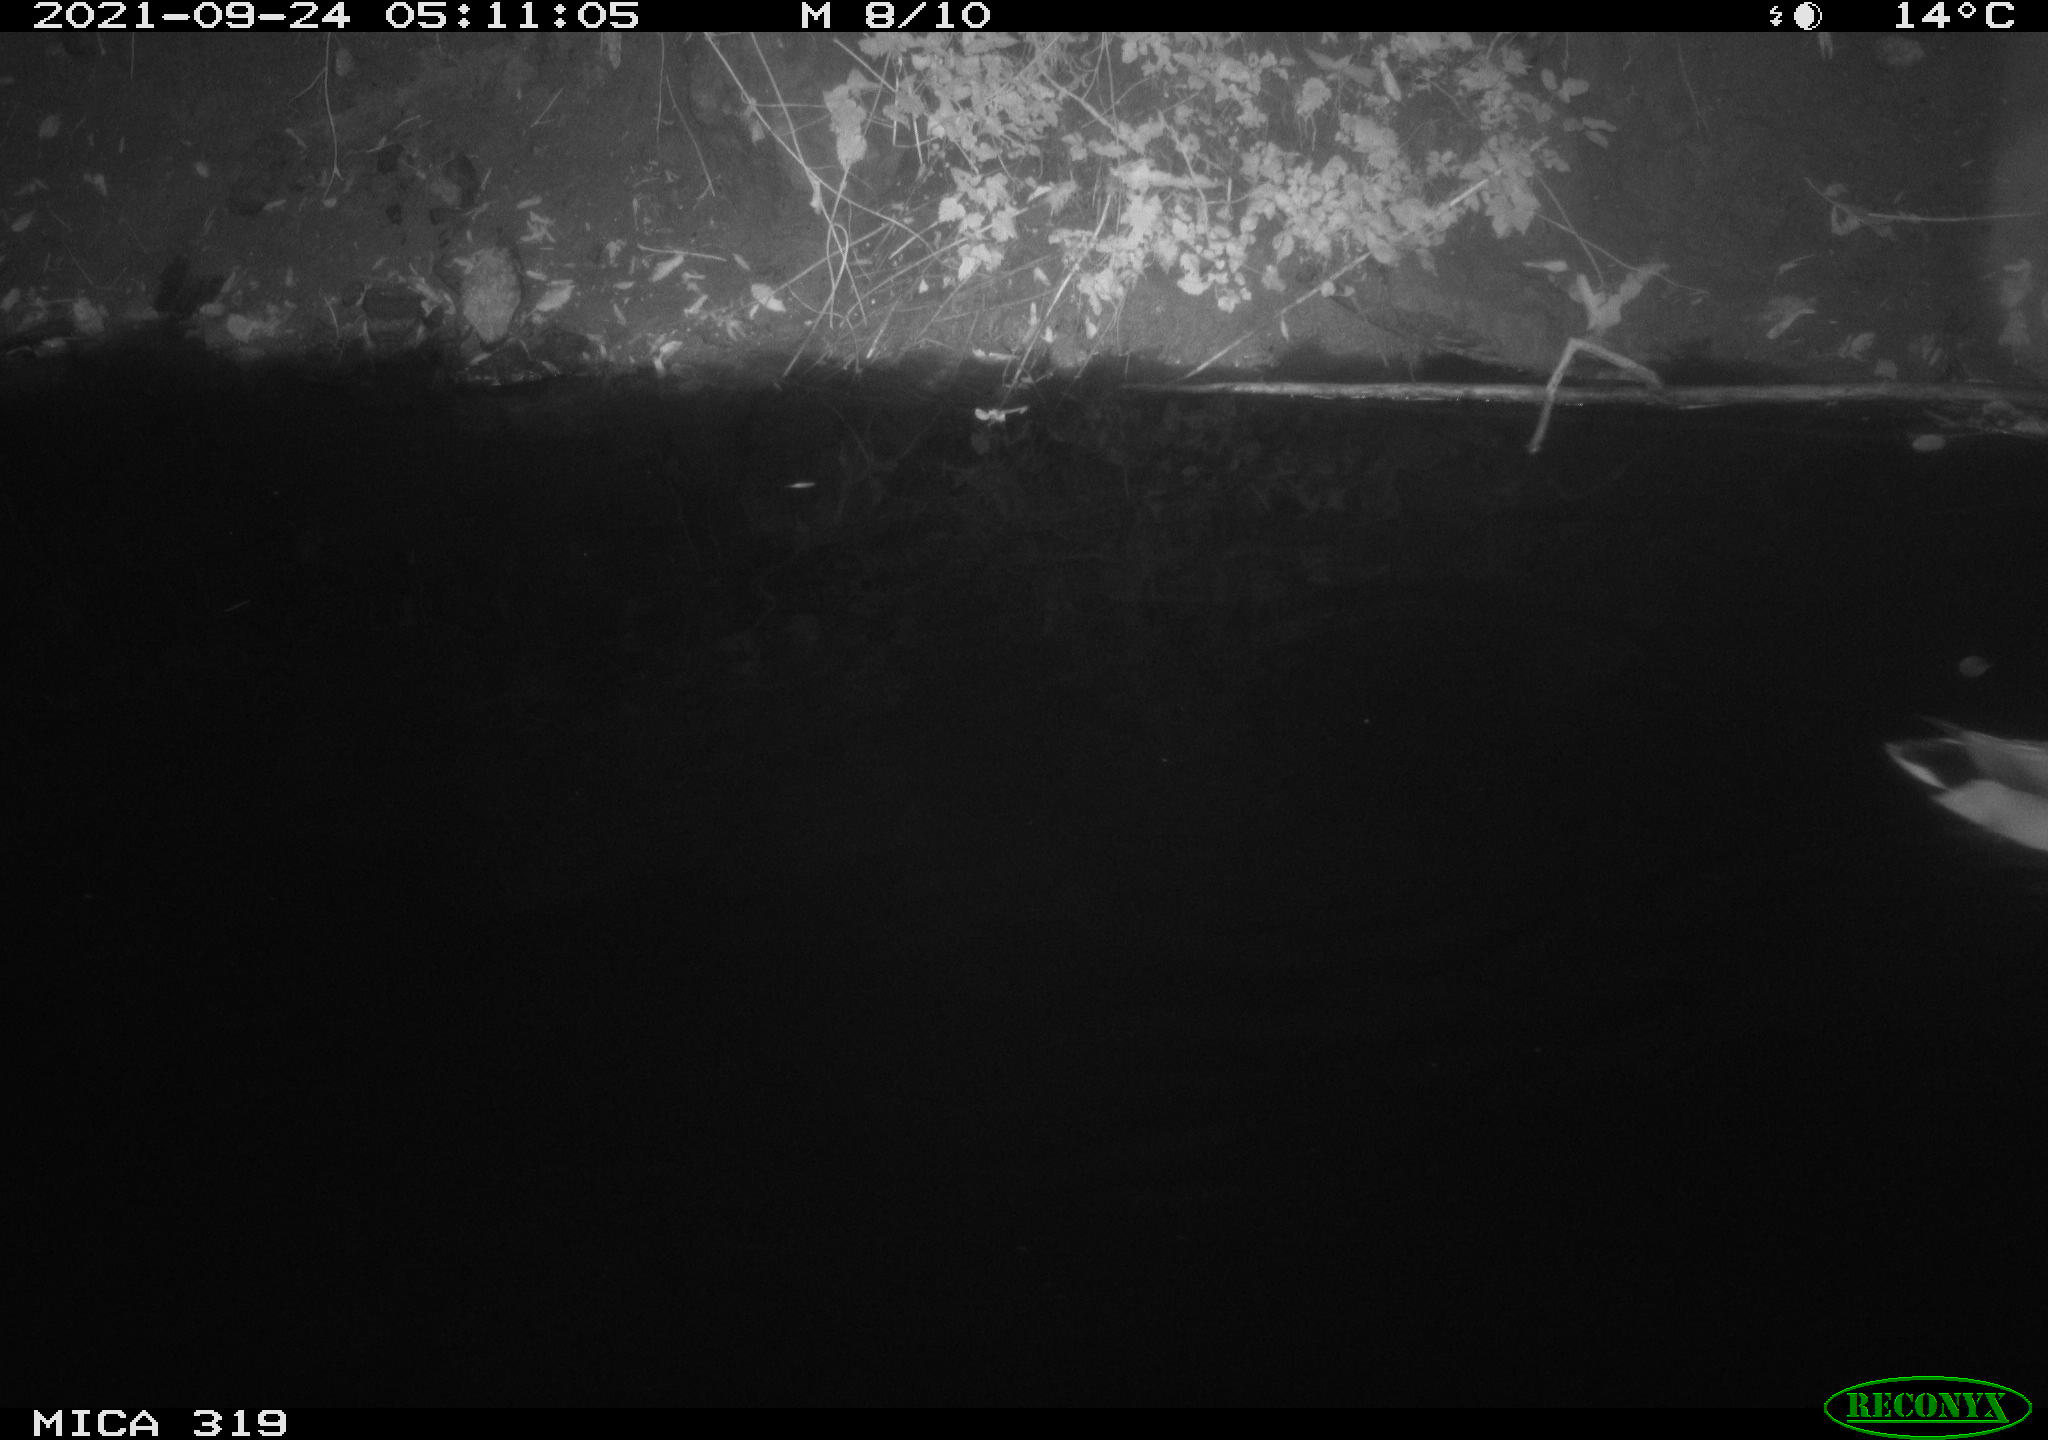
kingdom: Animalia
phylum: Chordata
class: Aves
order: Anseriformes
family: Anatidae
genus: Anas
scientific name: Anas platyrhynchos
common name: Mallard
